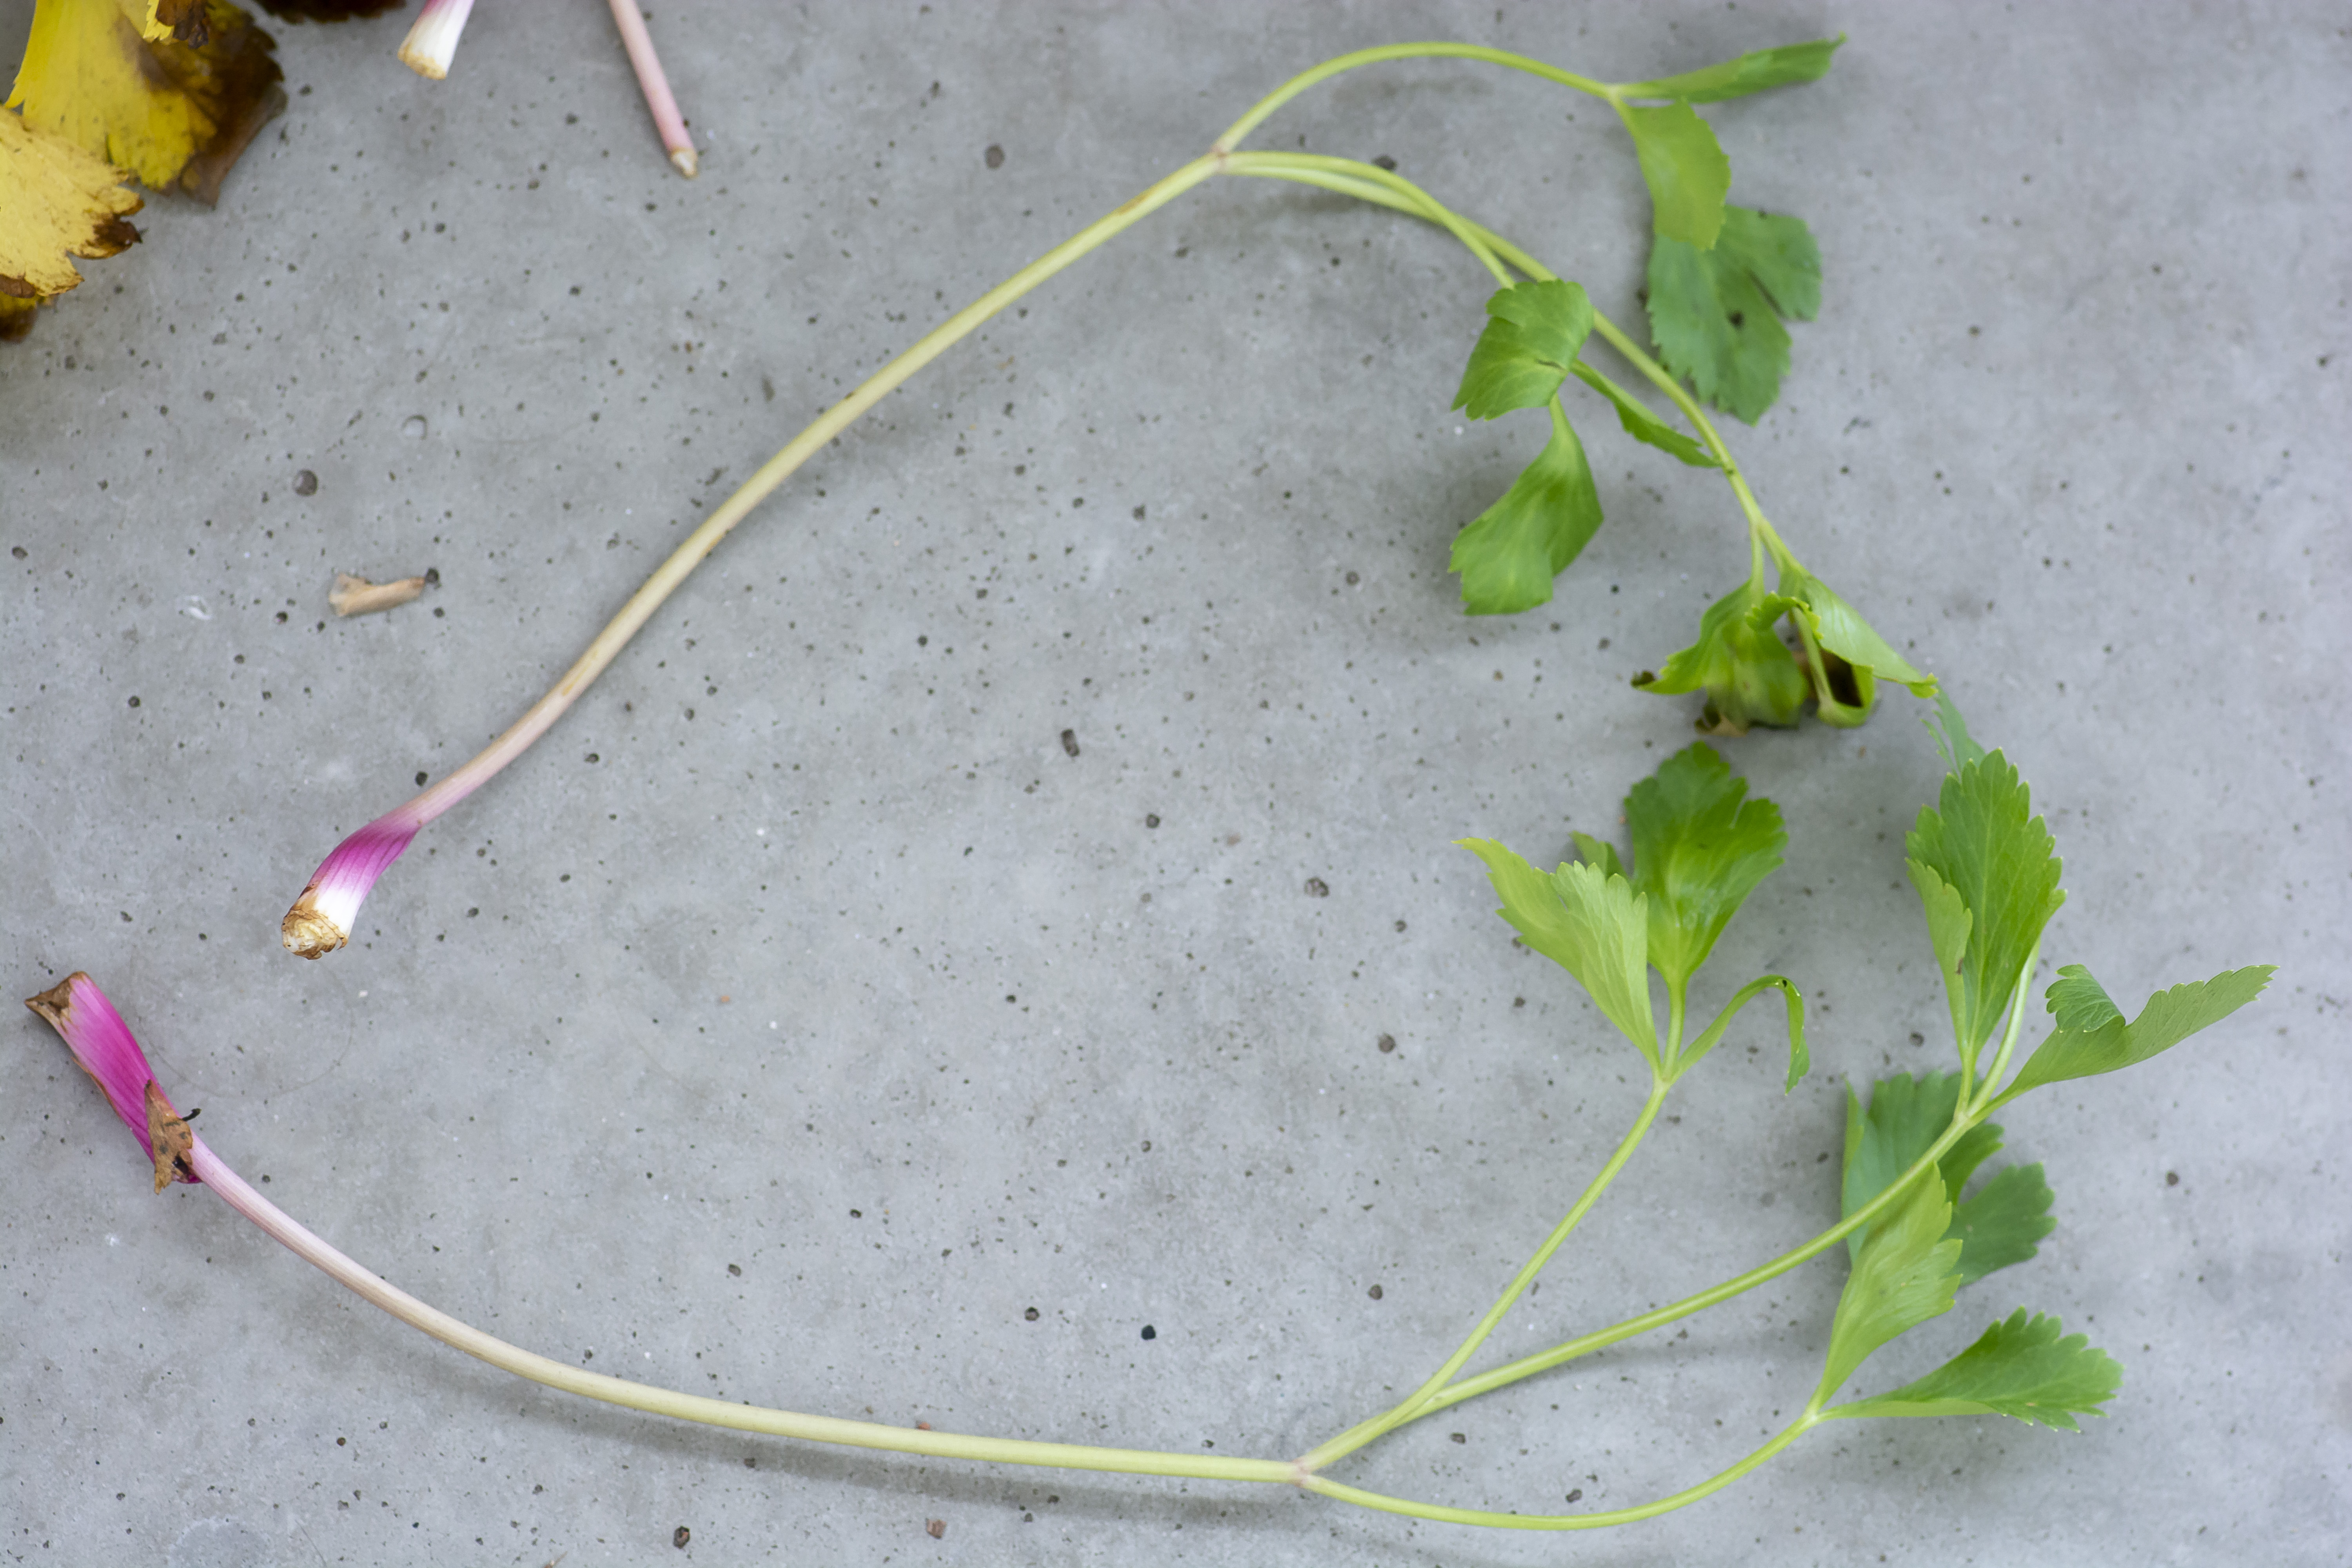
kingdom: Plantae
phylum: Tracheophyta
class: Magnoliopsida
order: Apiales
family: Apiaceae
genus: Ligusticum
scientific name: Ligusticum scothicum
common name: Skotsk lostilk
